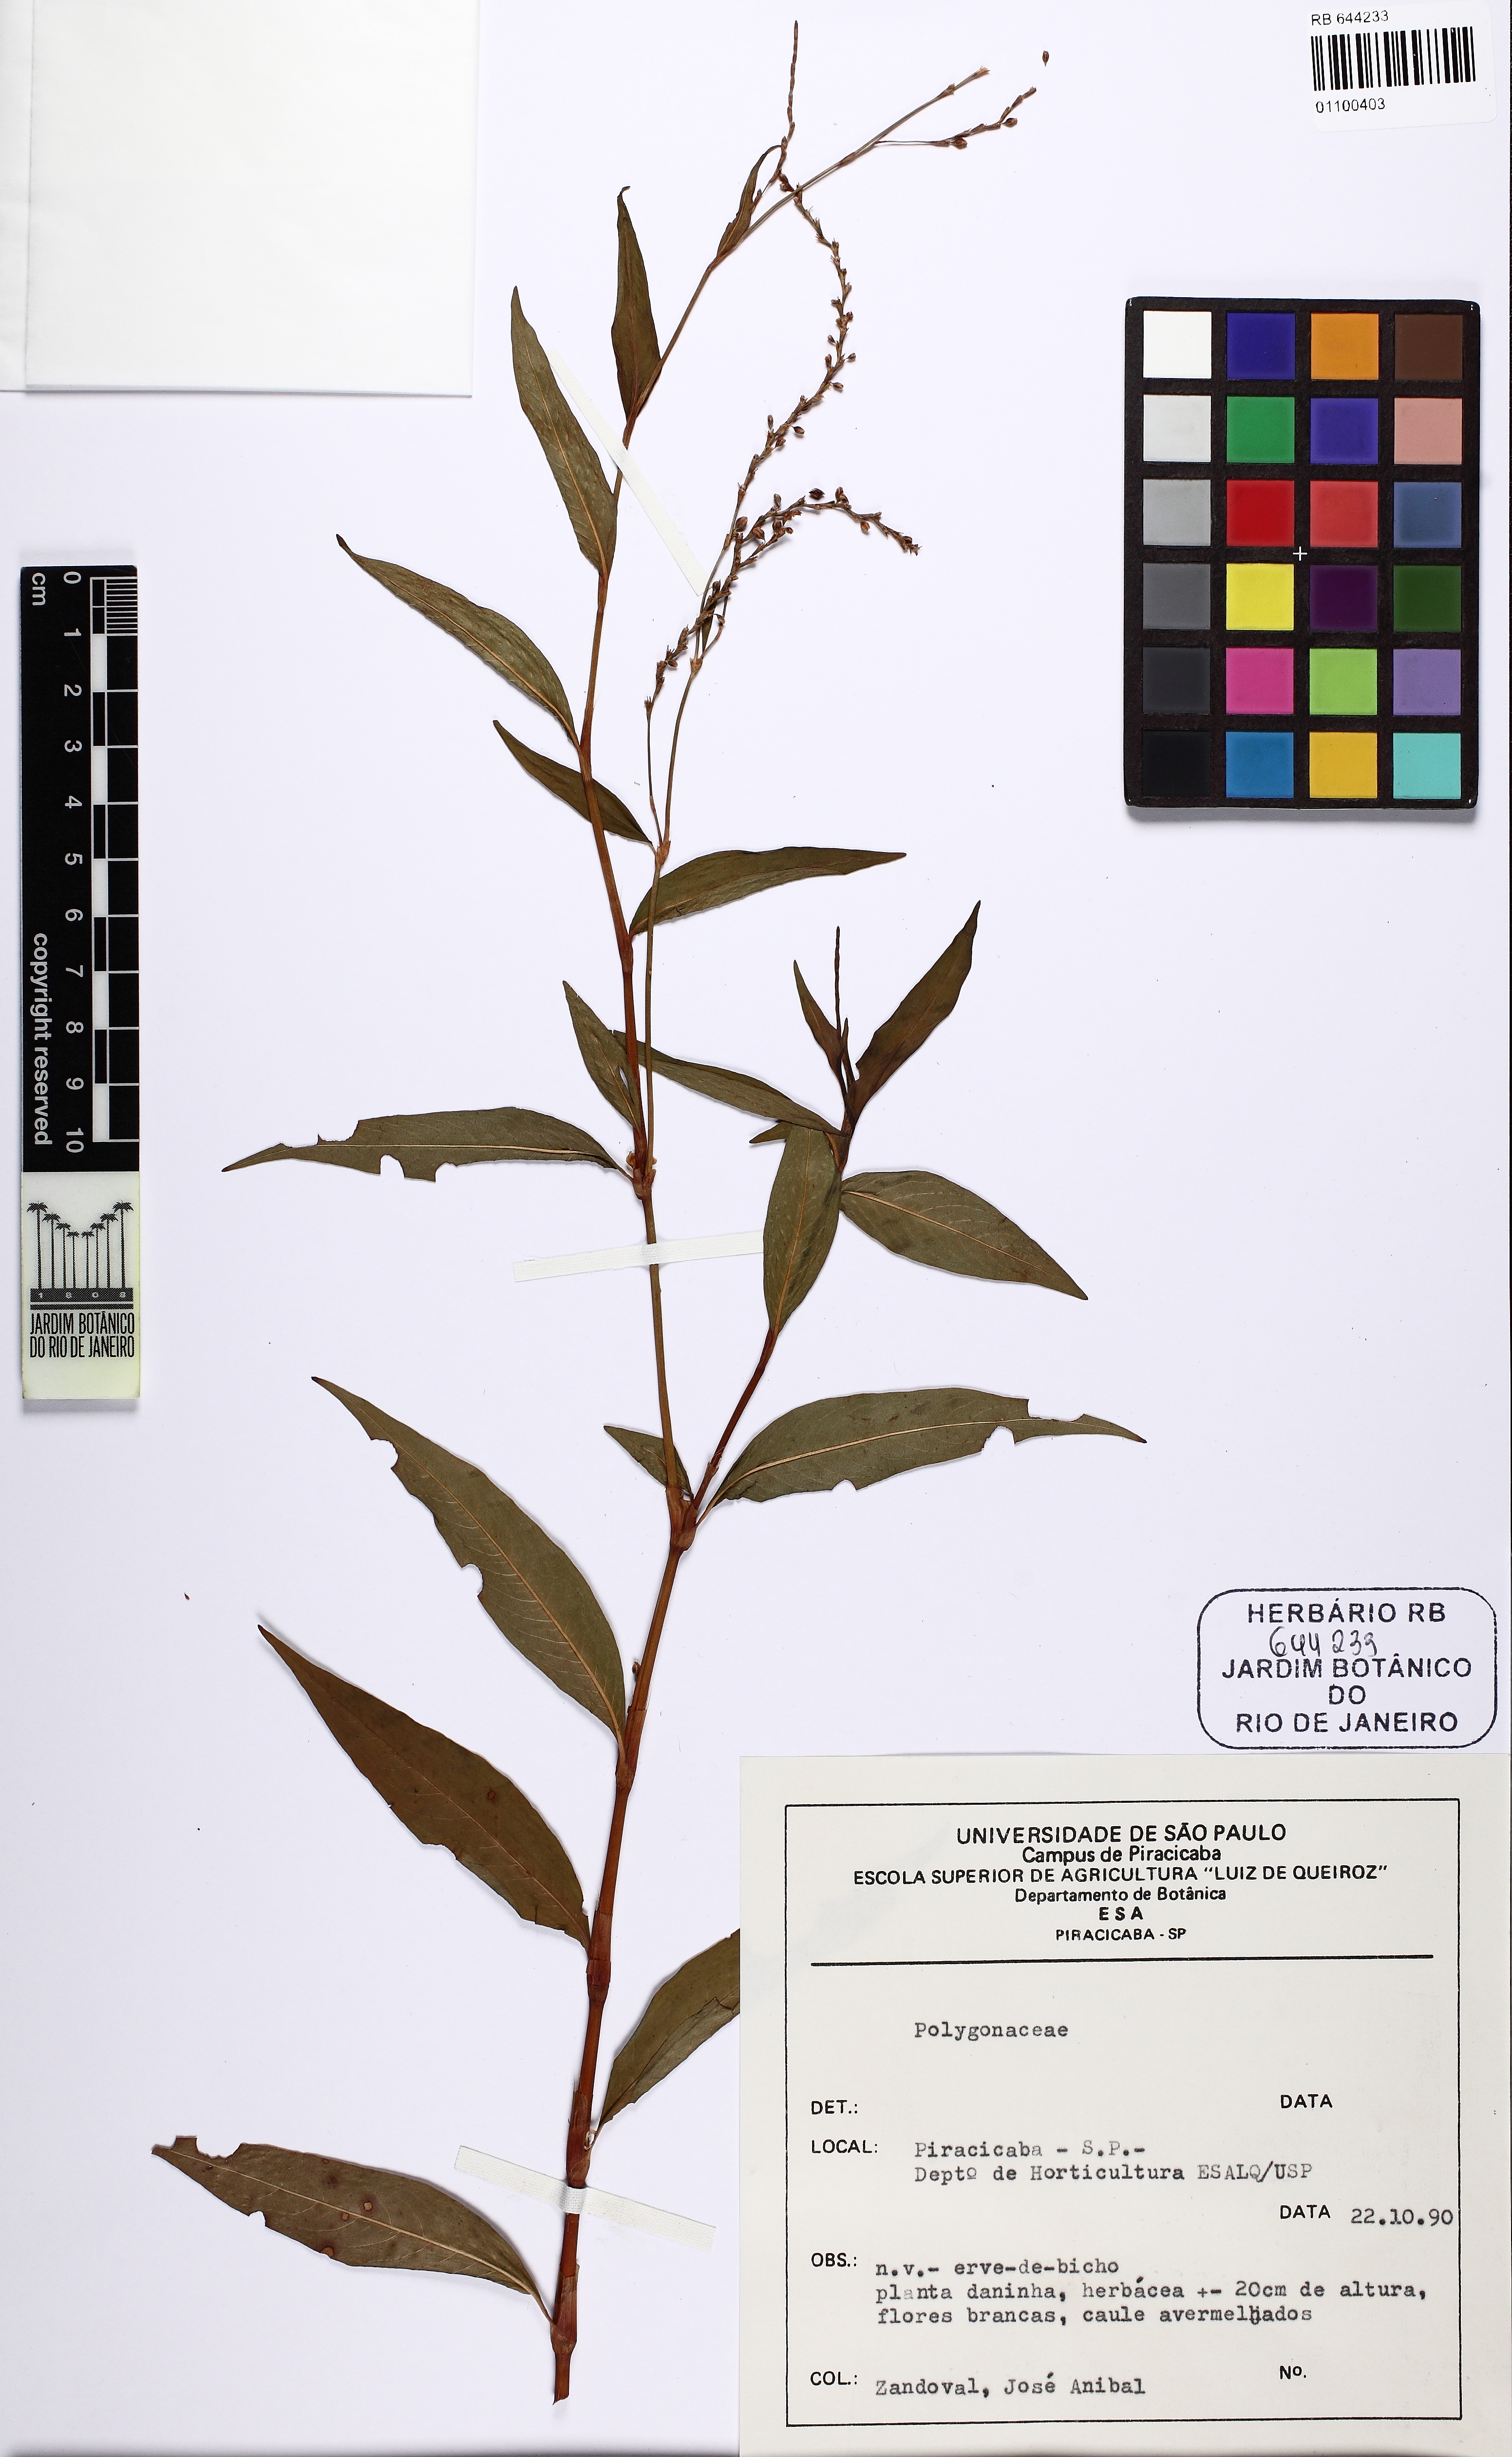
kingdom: Plantae
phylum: Tracheophyta
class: Magnoliopsida
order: Caryophyllales
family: Polygonaceae
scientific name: Polygonaceae
